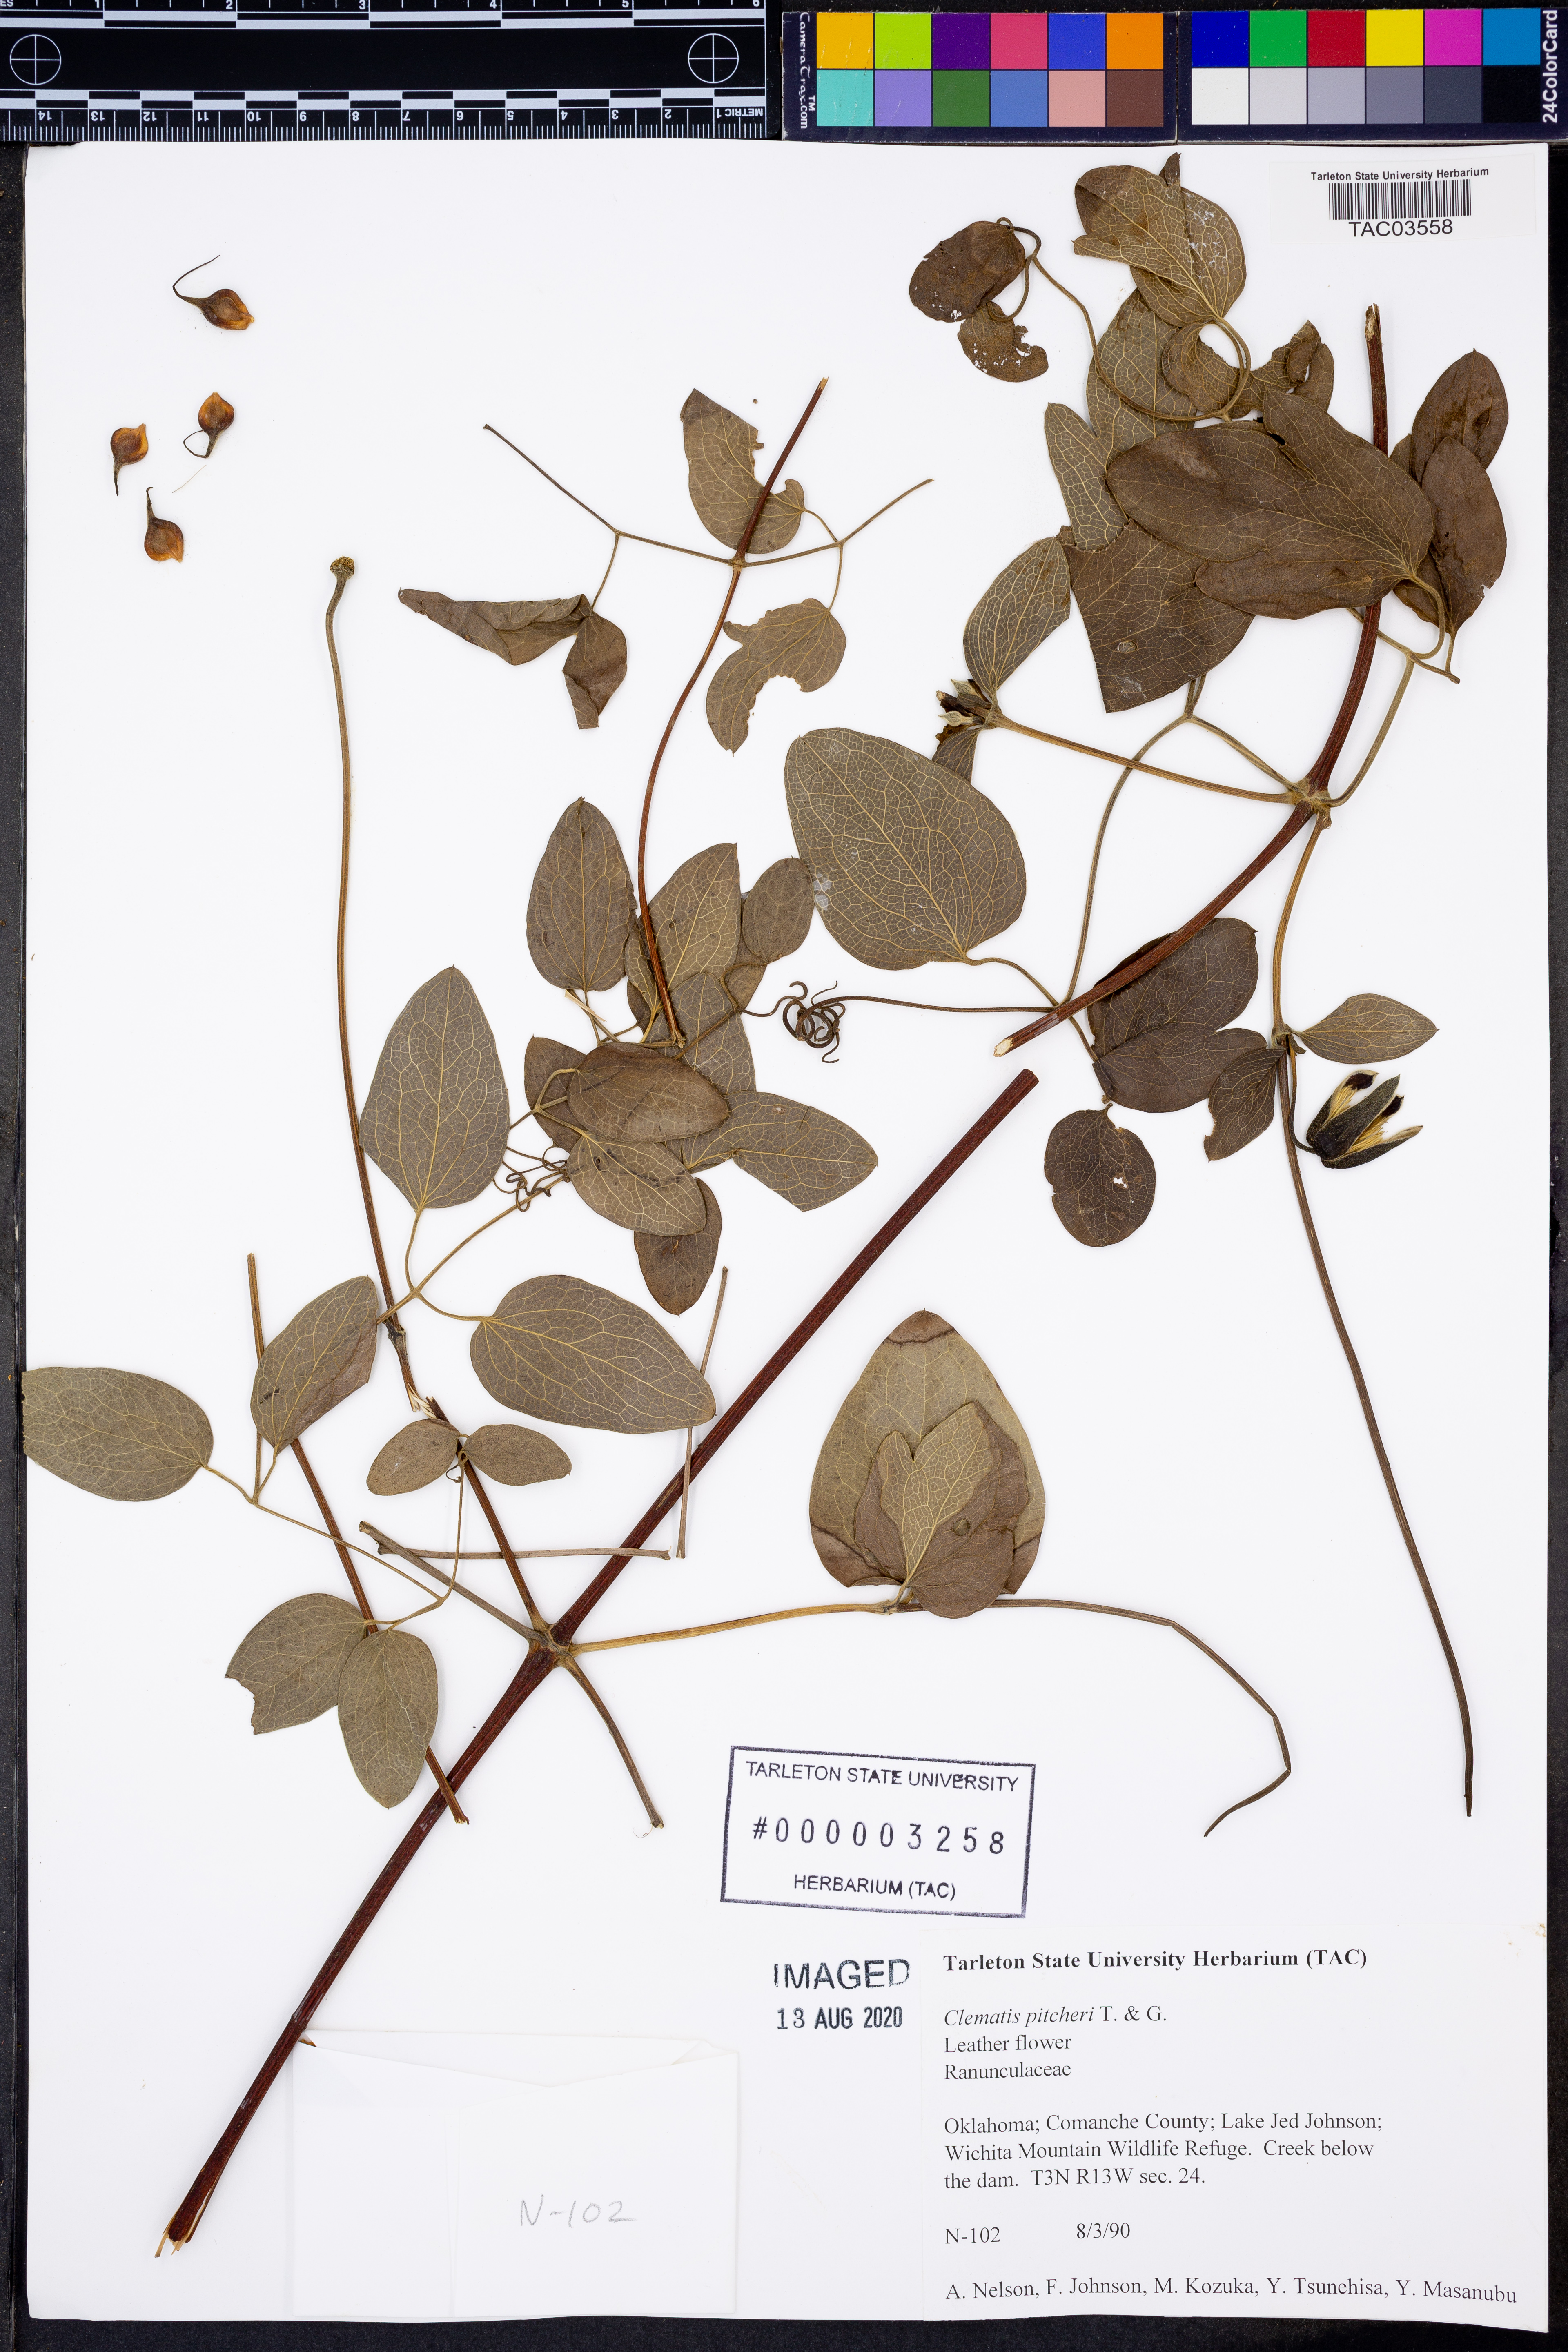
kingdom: Plantae
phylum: Tracheophyta
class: Magnoliopsida
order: Ranunculales
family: Ranunculaceae
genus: Clematis
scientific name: Clematis pitcheri
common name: Bellflower clematis
